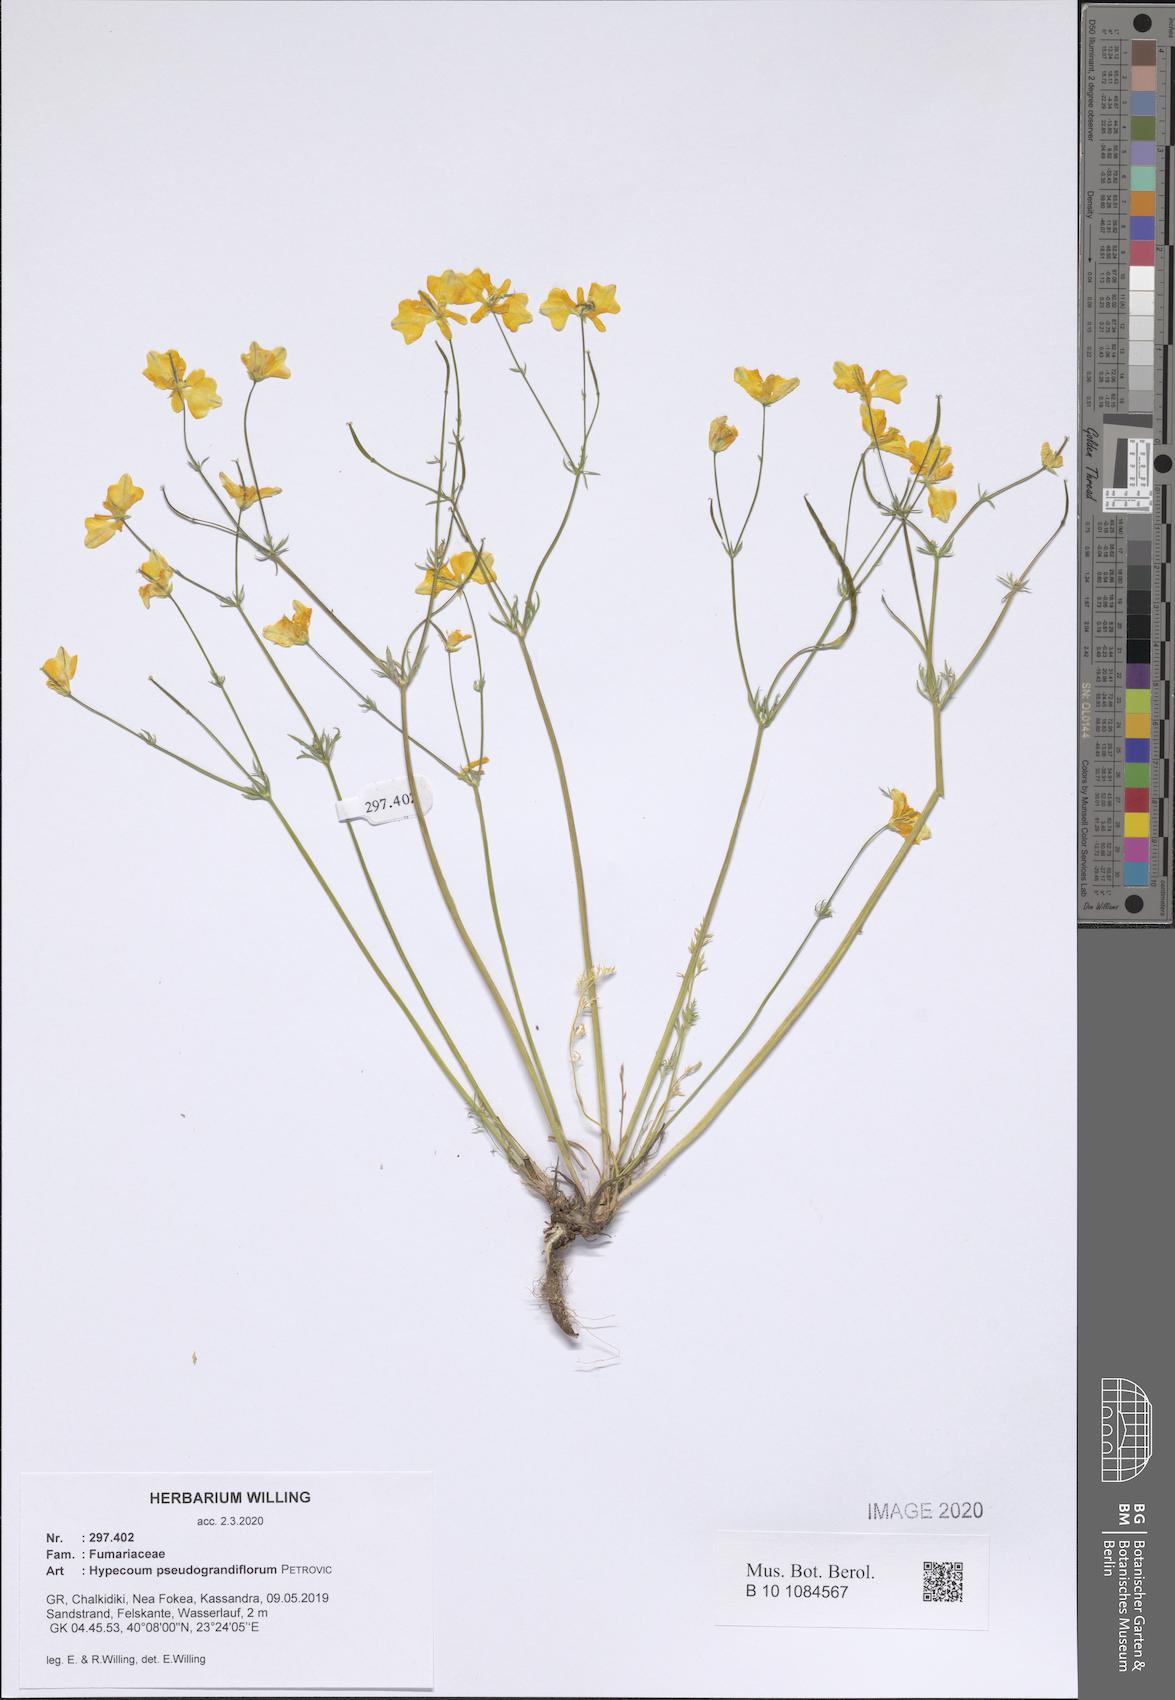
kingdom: Plantae
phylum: Tracheophyta
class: Magnoliopsida
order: Ranunculales
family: Papaveraceae
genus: Hypecoum
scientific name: Hypecoum pseudograndiflorum
